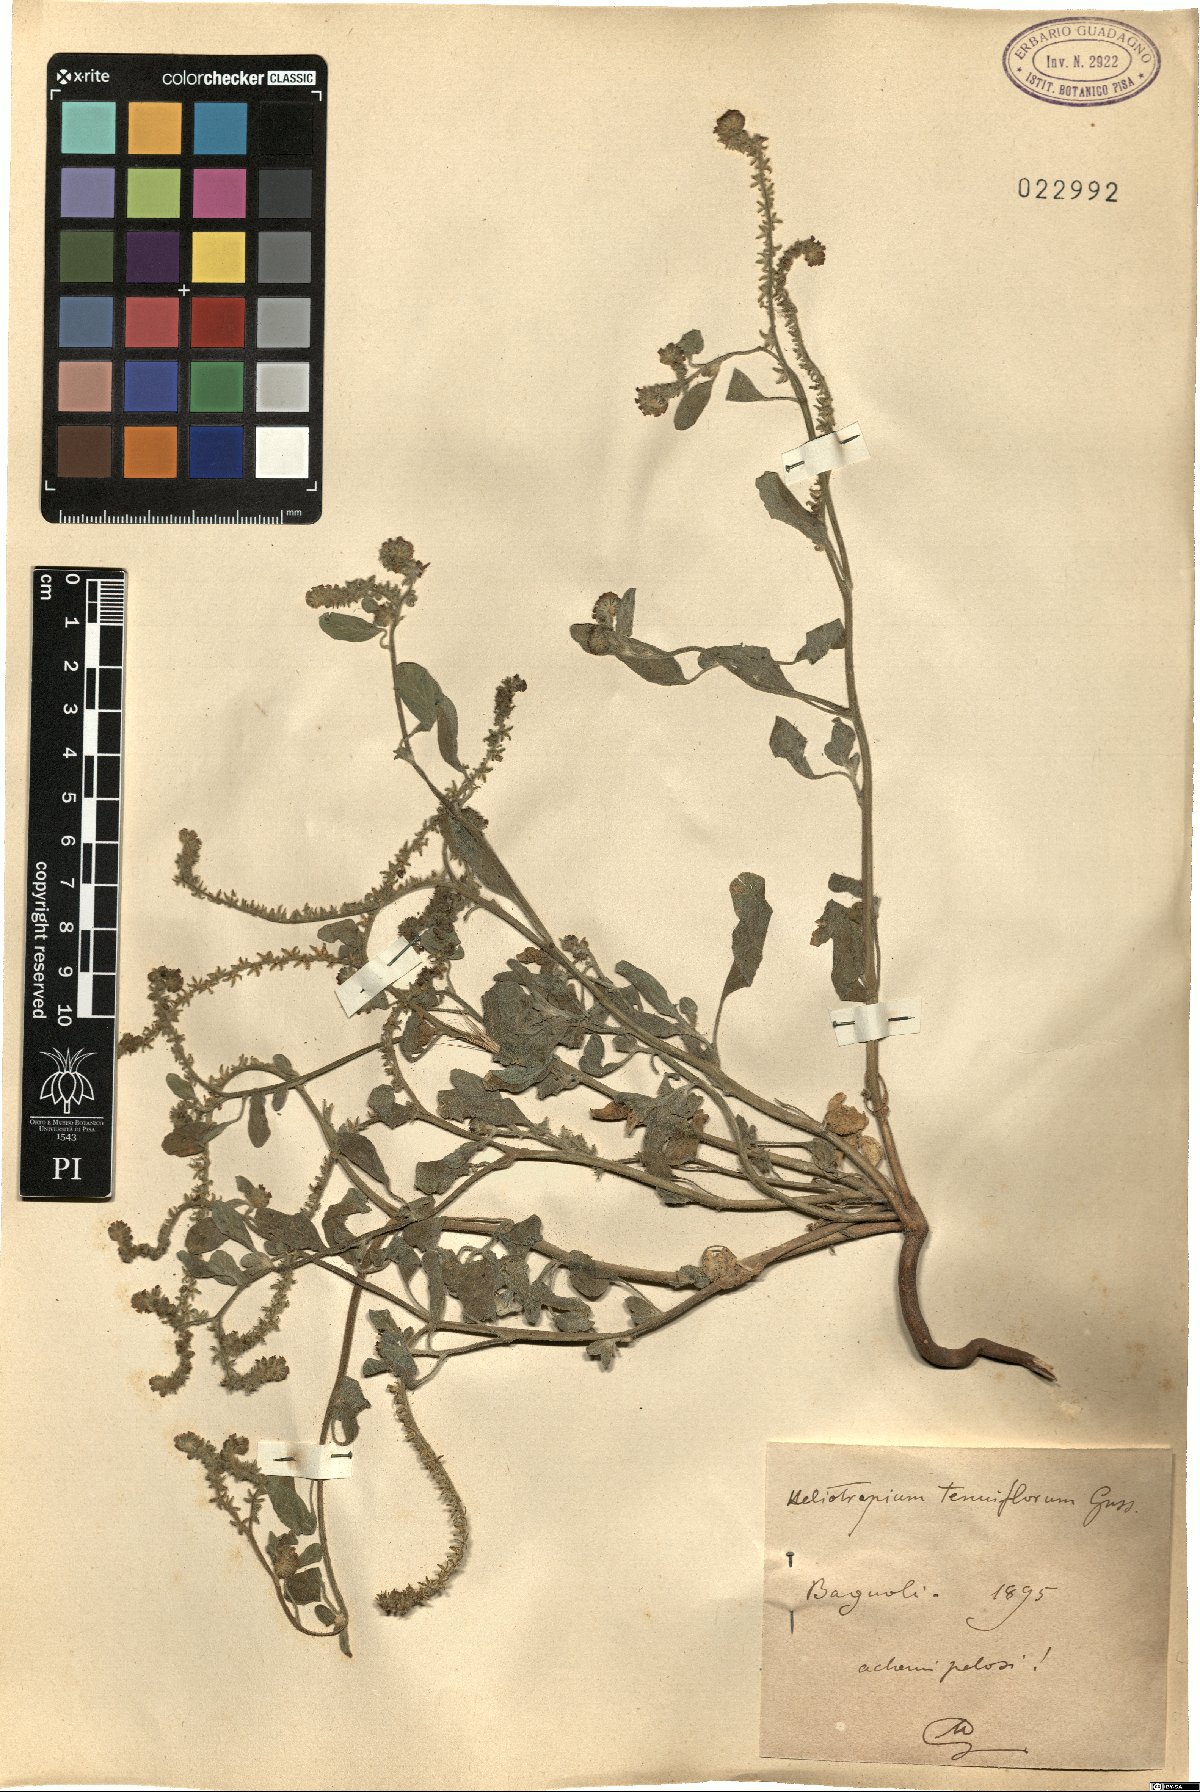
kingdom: Plantae
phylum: Tracheophyta
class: Magnoliopsida
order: Boraginales
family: Heliotropiaceae
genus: Heliotropium
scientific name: Heliotropium
